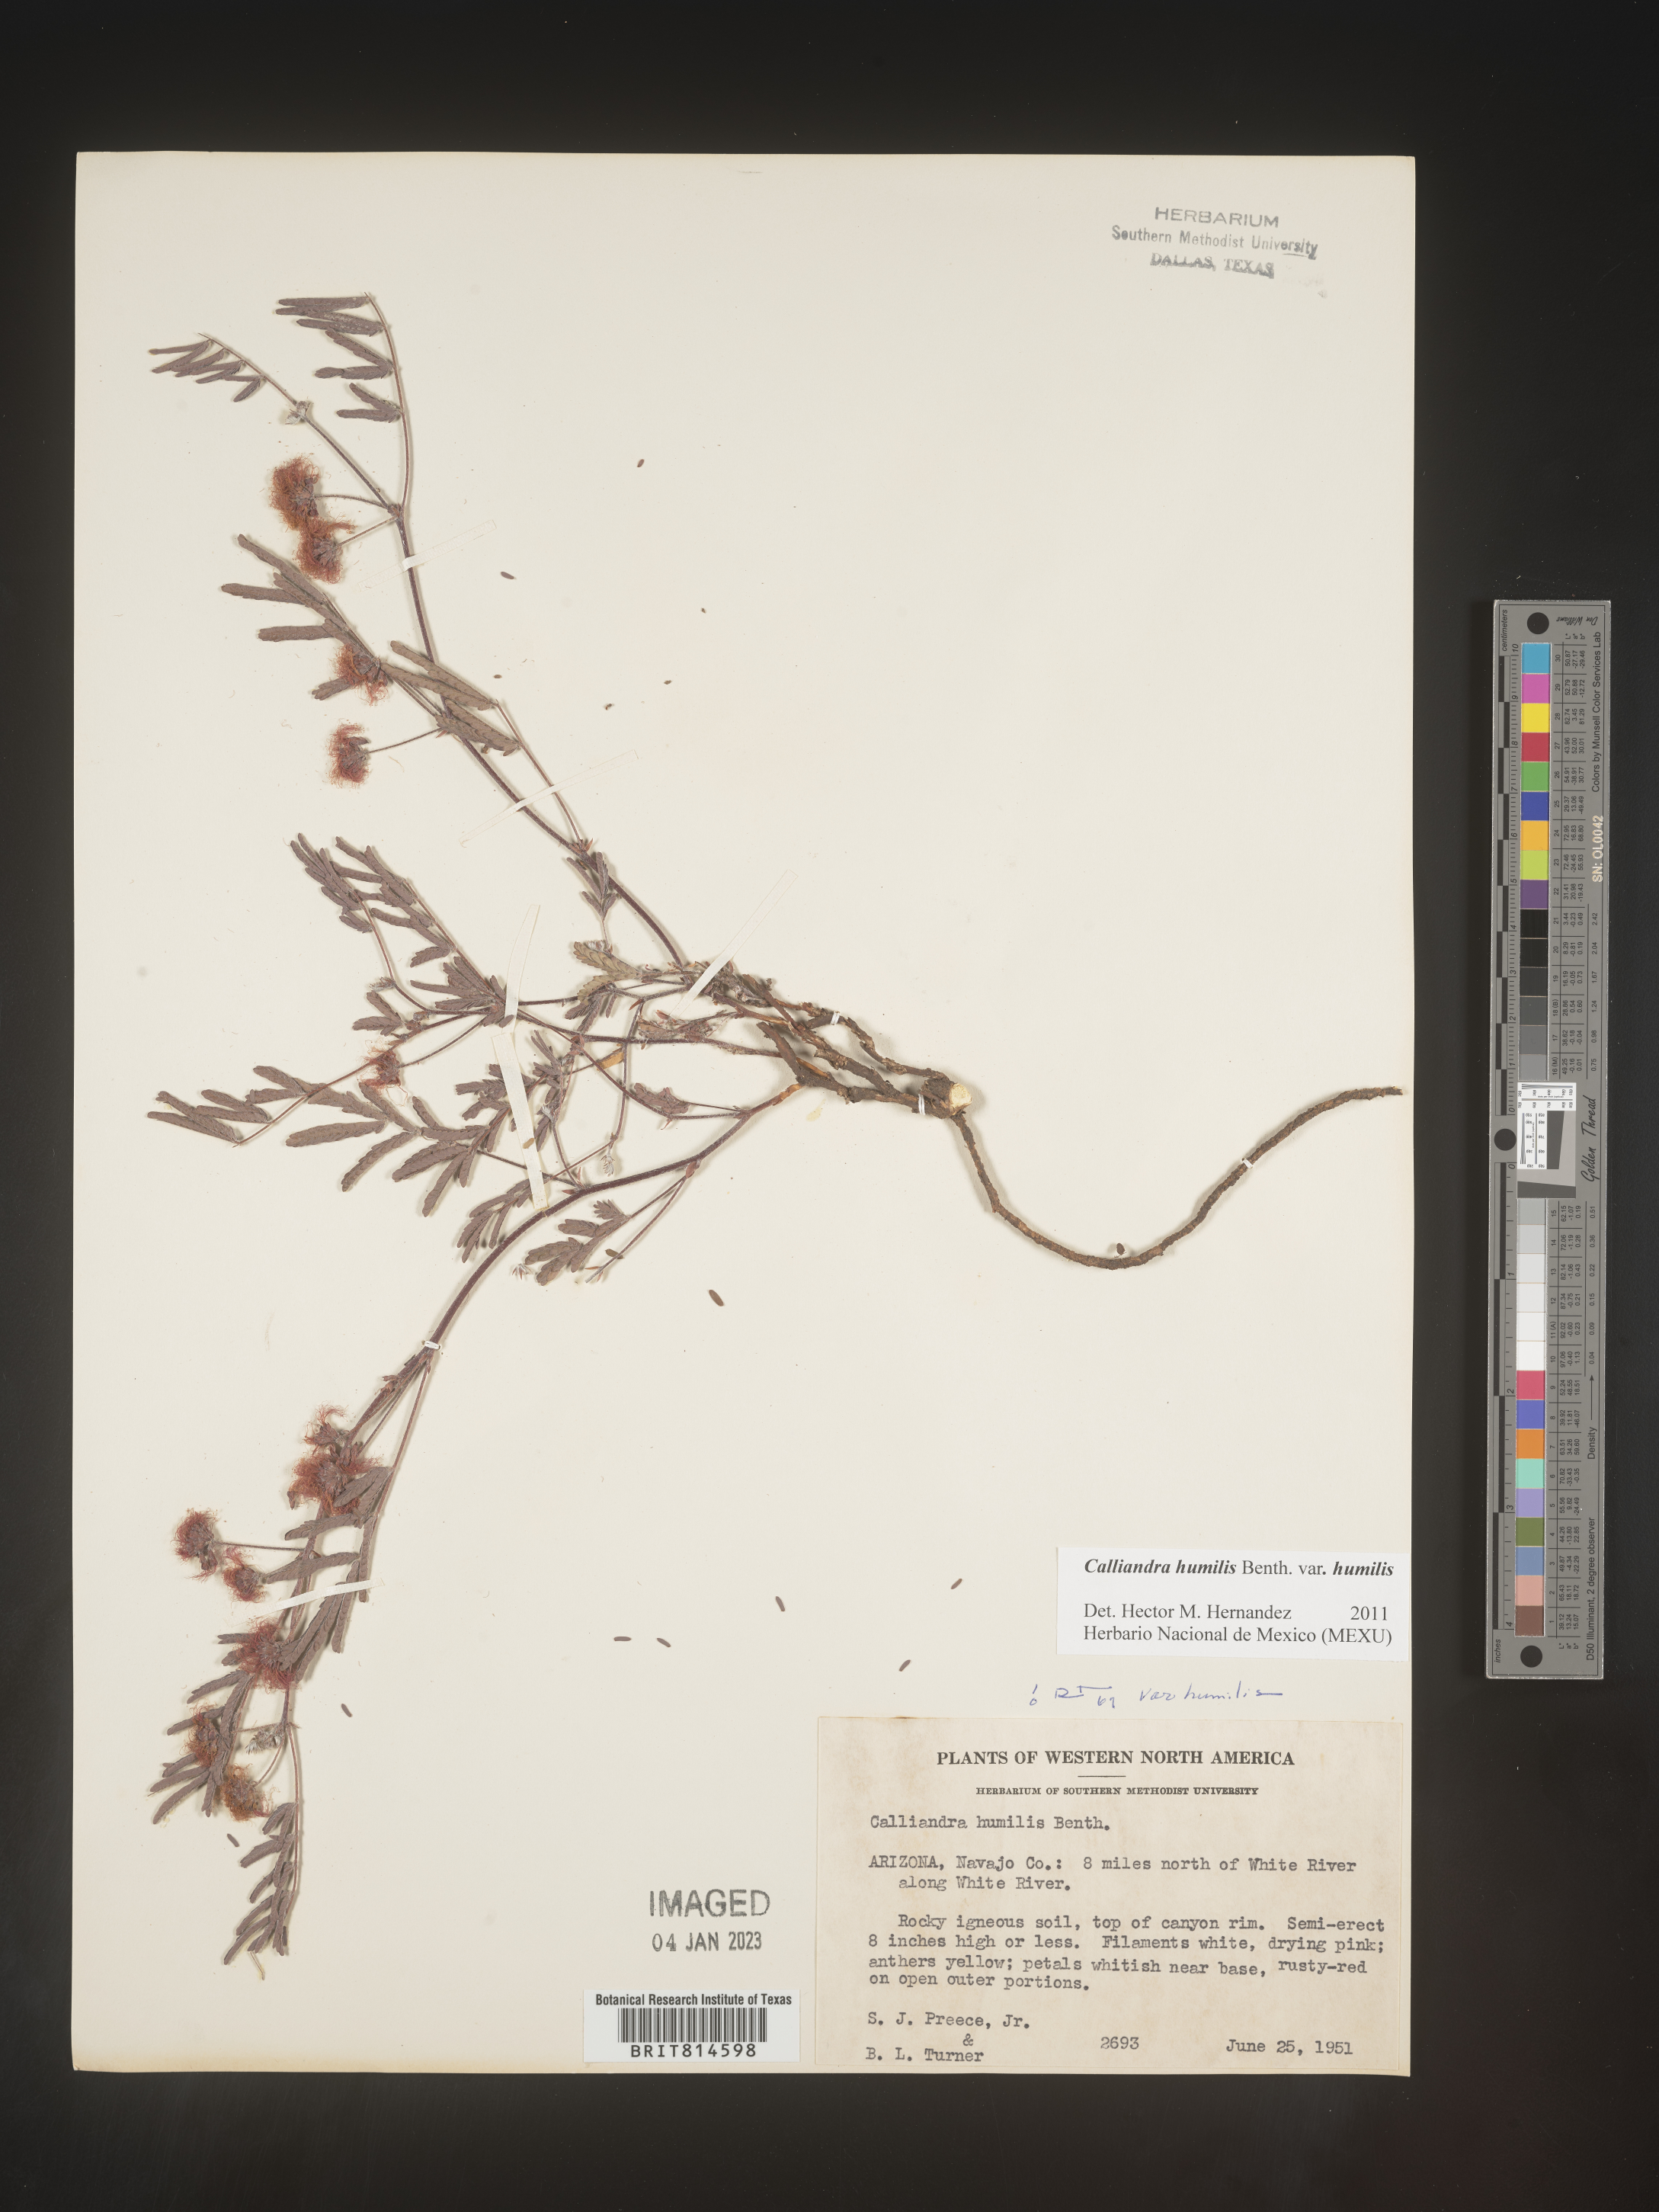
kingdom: Plantae
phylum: Tracheophyta
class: Magnoliopsida
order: Fabales
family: Fabaceae
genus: Calliandra
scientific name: Calliandra
